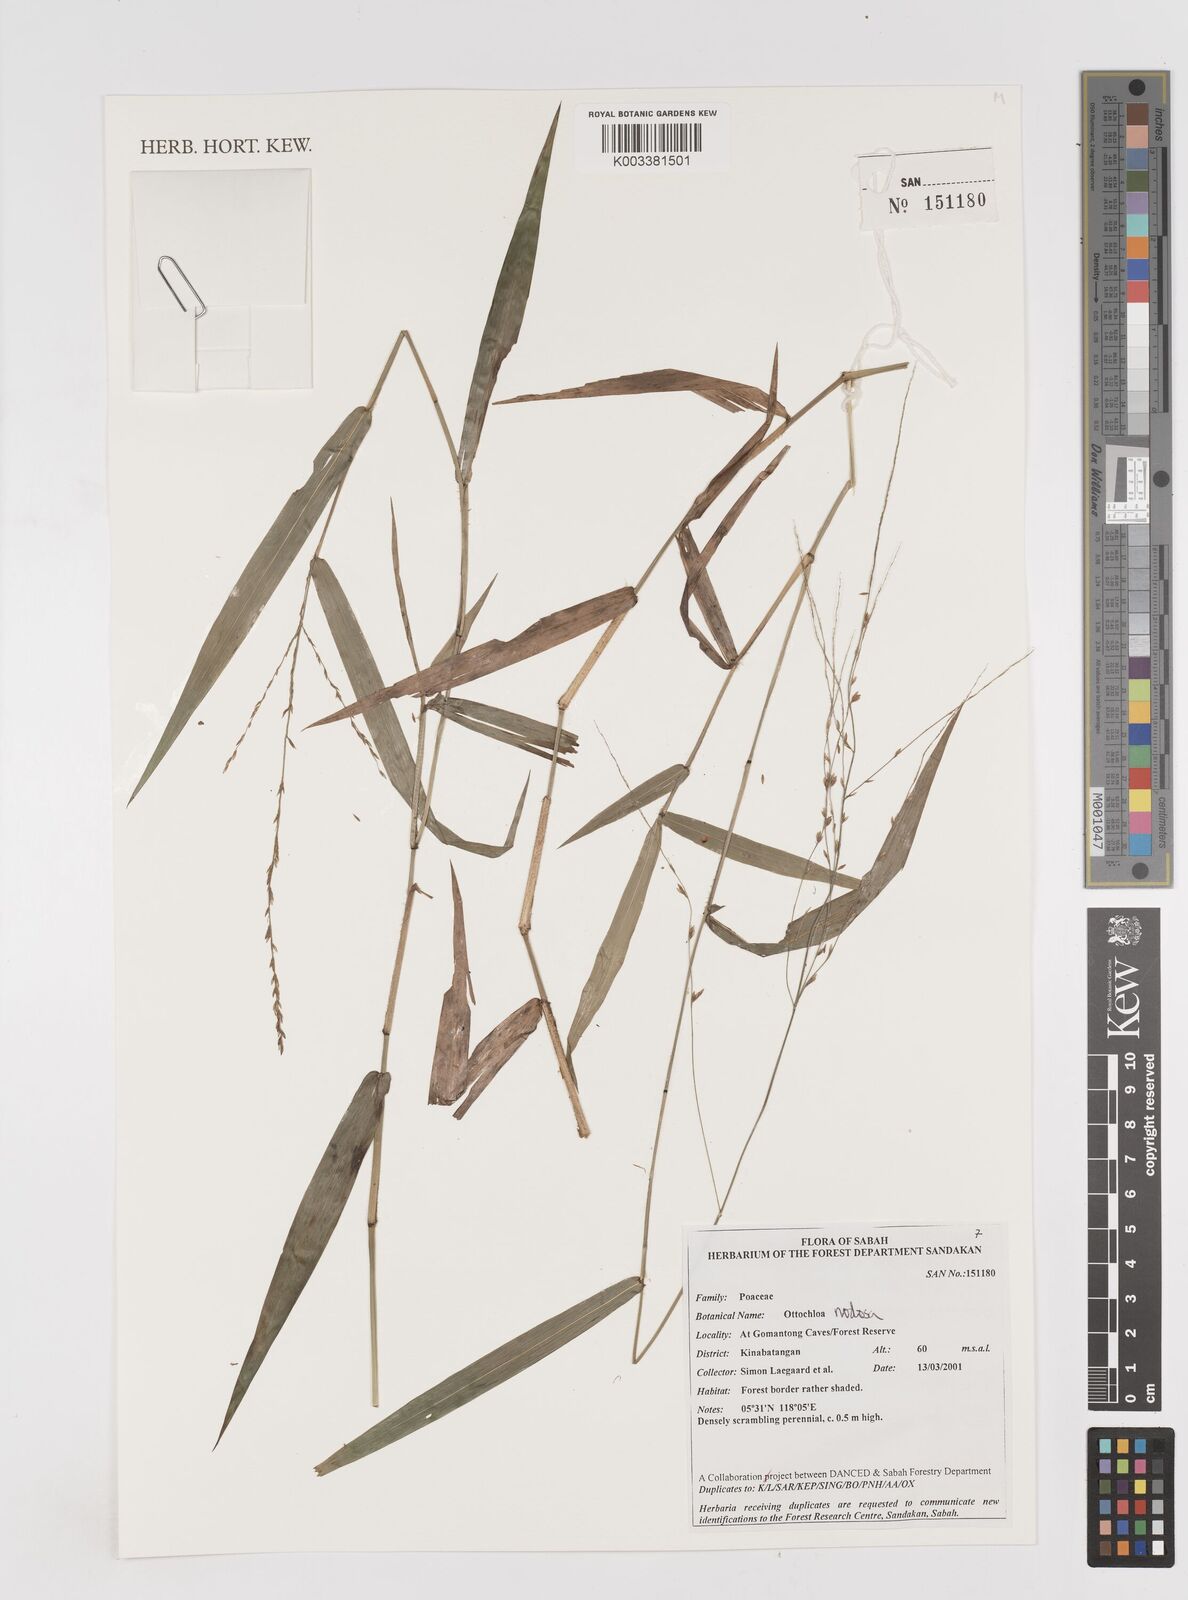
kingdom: Plantae
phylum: Tracheophyta
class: Liliopsida
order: Poales
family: Poaceae
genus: Ottochloa
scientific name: Ottochloa nodosa
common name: Slender-panic grass
